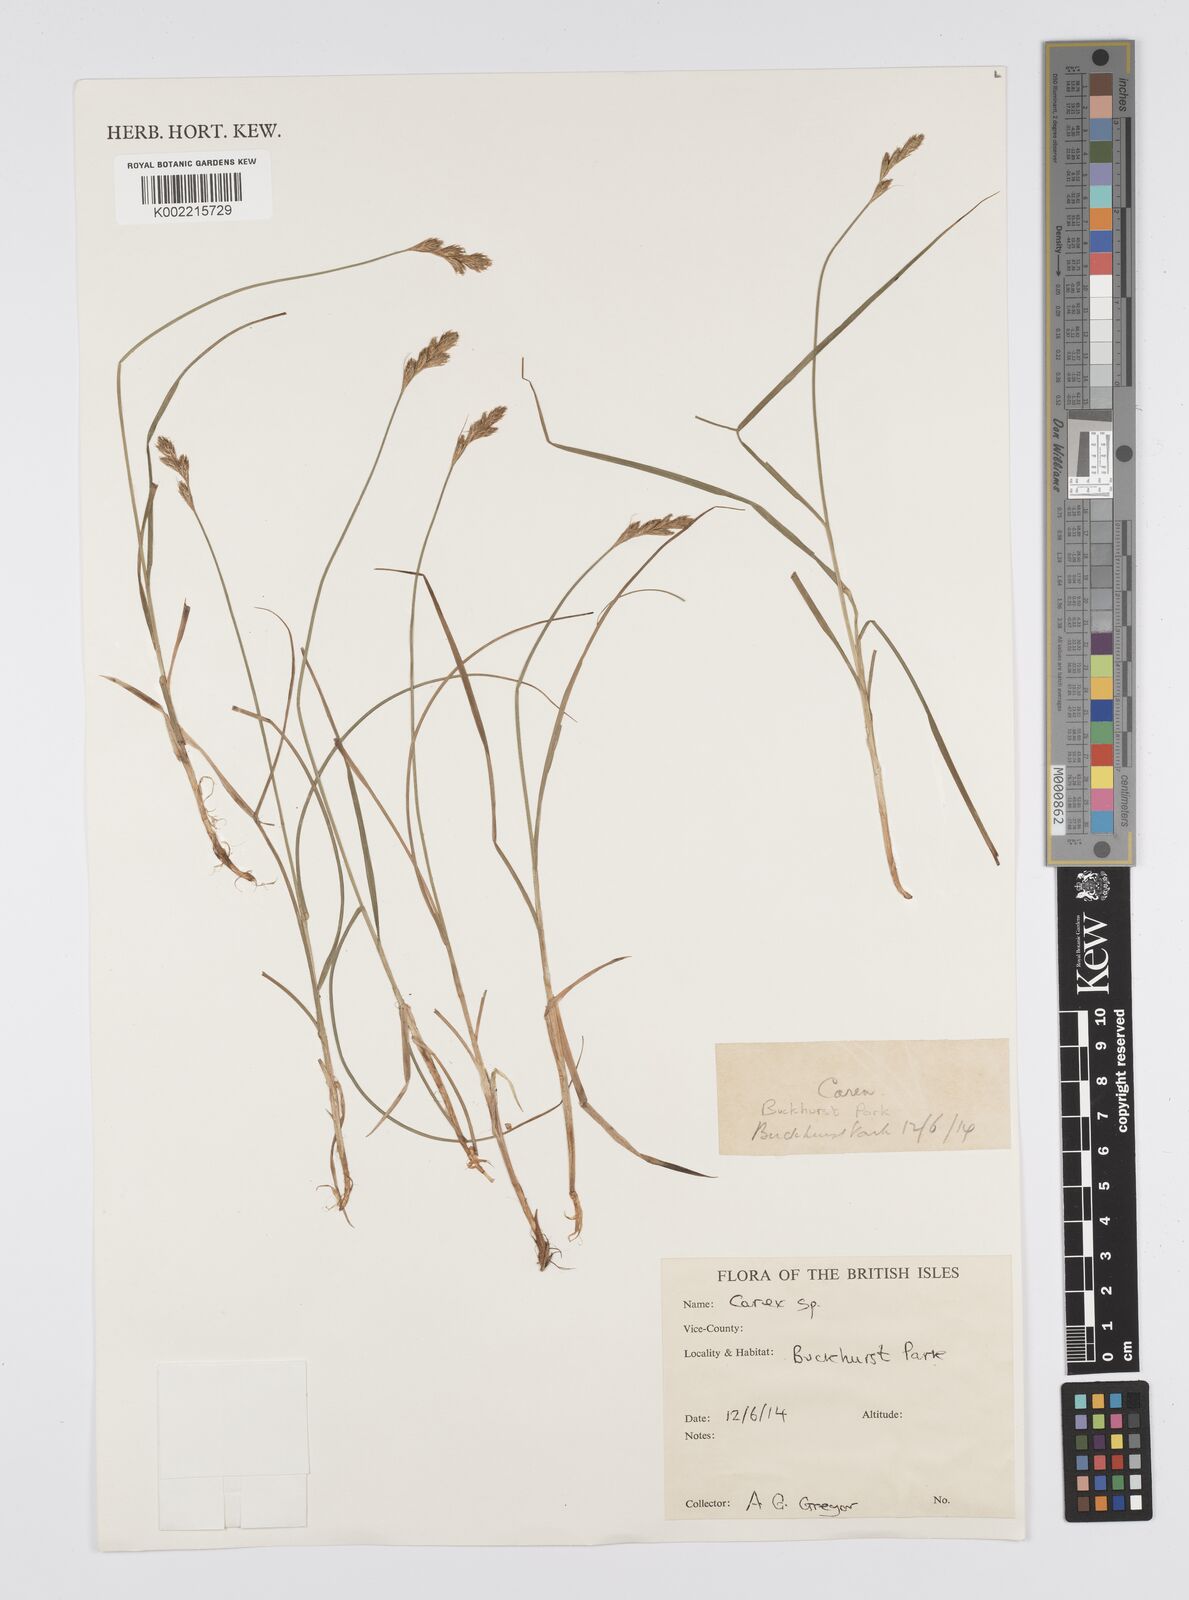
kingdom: Plantae
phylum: Tracheophyta
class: Liliopsida
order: Poales
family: Cyperaceae
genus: Carex
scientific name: Carex
